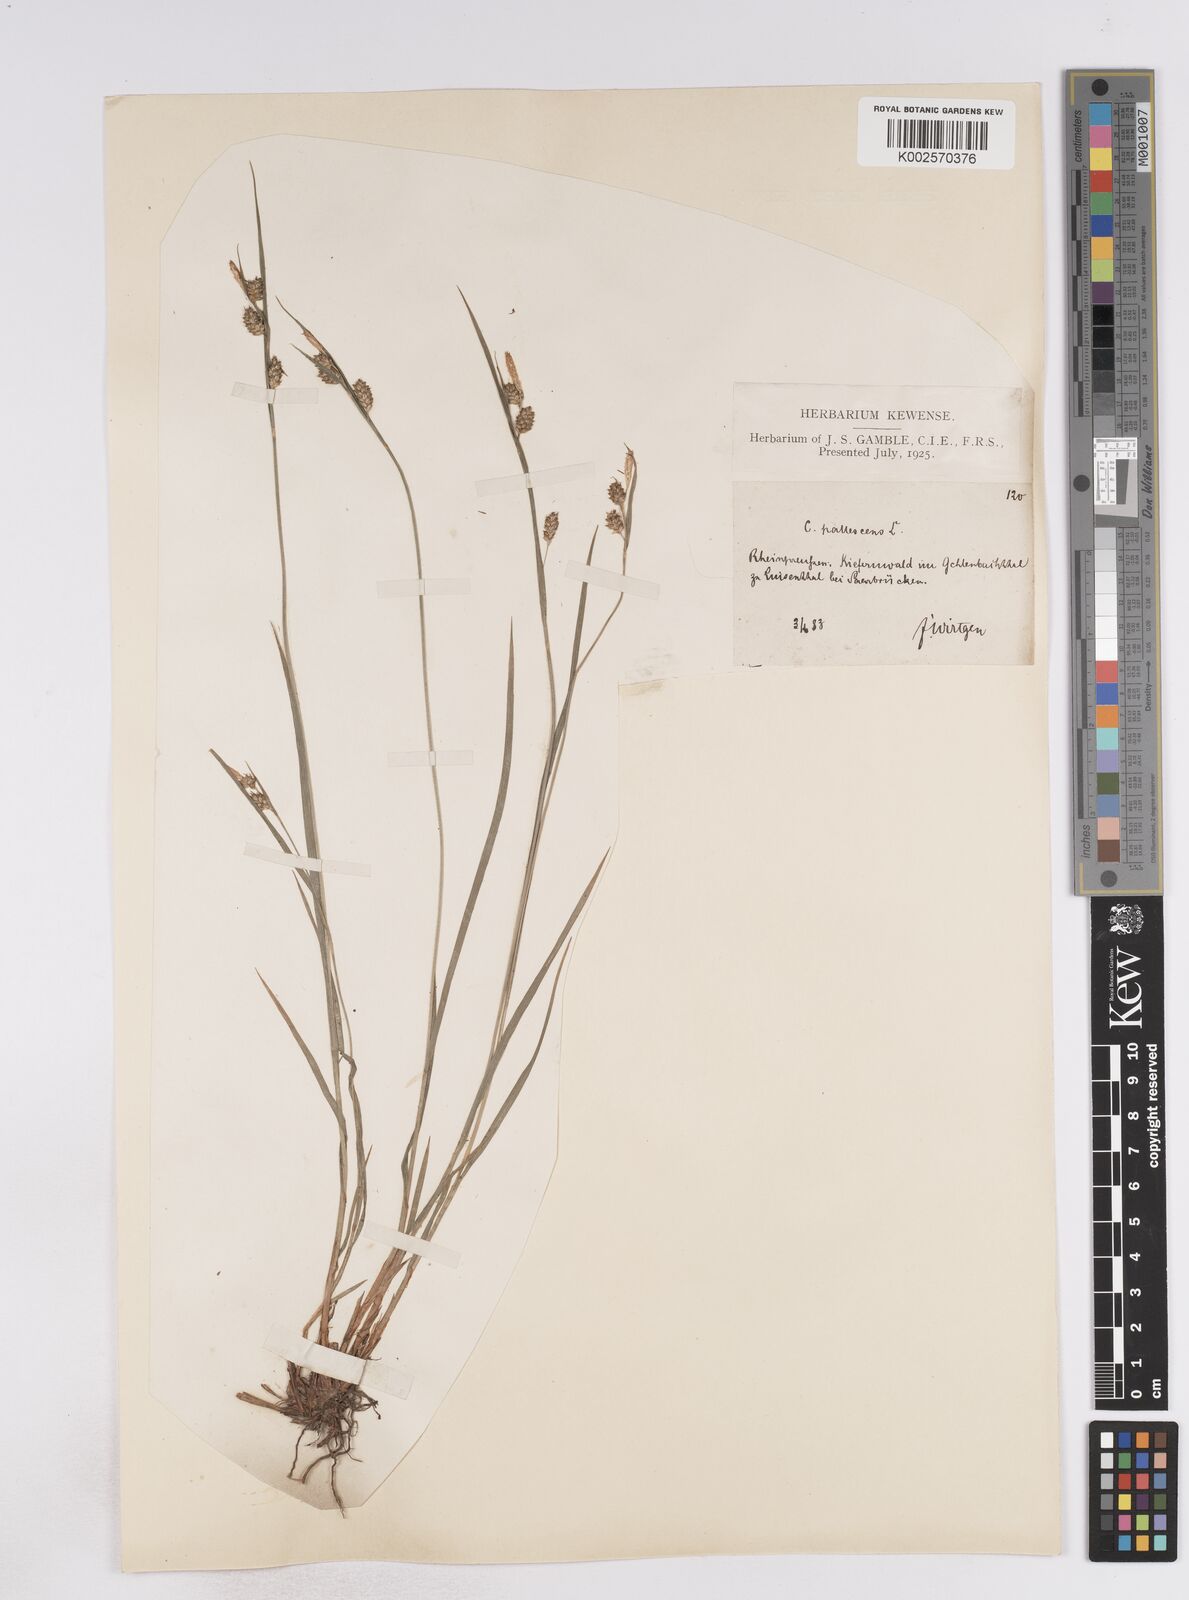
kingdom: Plantae
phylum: Tracheophyta
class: Liliopsida
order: Poales
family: Cyperaceae
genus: Carex
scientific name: Carex pallescens
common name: Pale sedge
